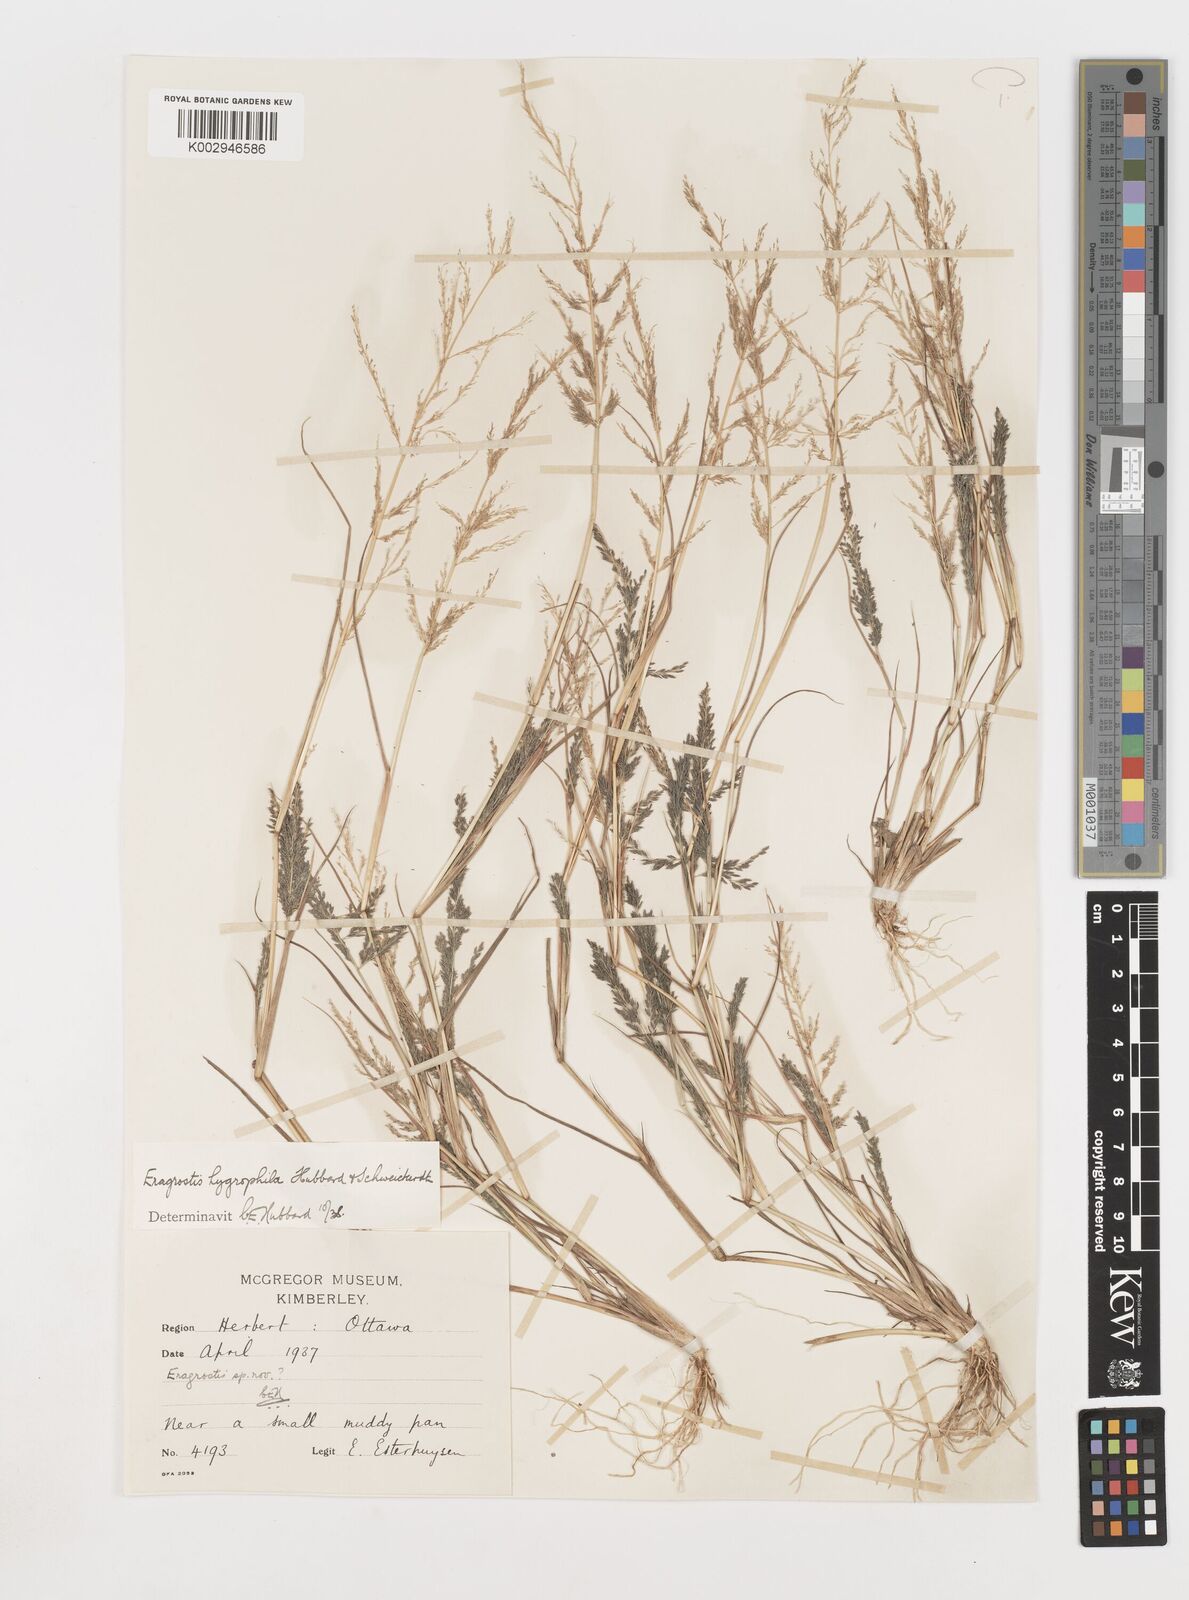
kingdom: Plantae
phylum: Tracheophyta
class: Liliopsida
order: Poales
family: Poaceae
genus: Eragrostis
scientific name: Eragrostis homomalla
